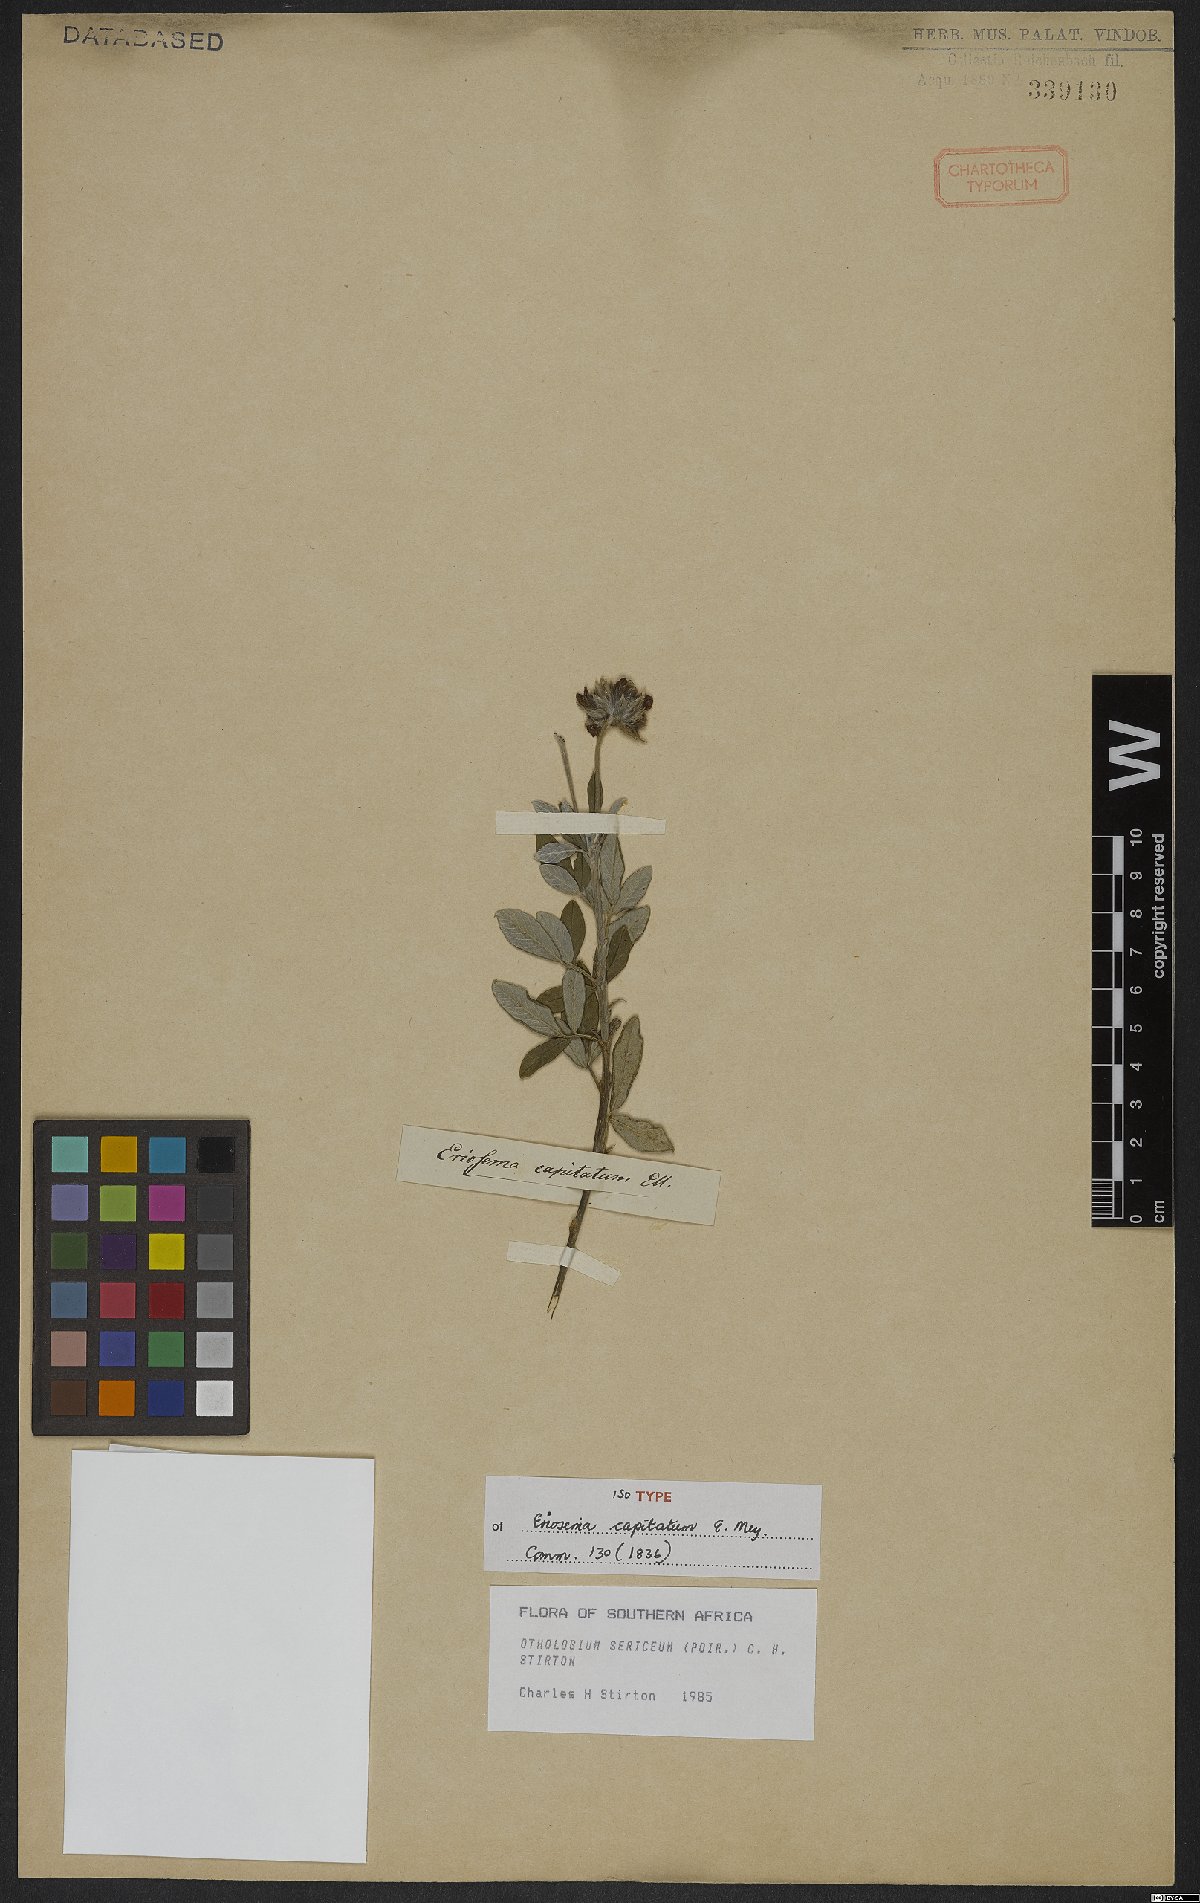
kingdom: Plantae
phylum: Tracheophyta
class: Magnoliopsida
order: Fabales
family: Fabaceae
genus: Psoralea
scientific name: Psoralea sericea
